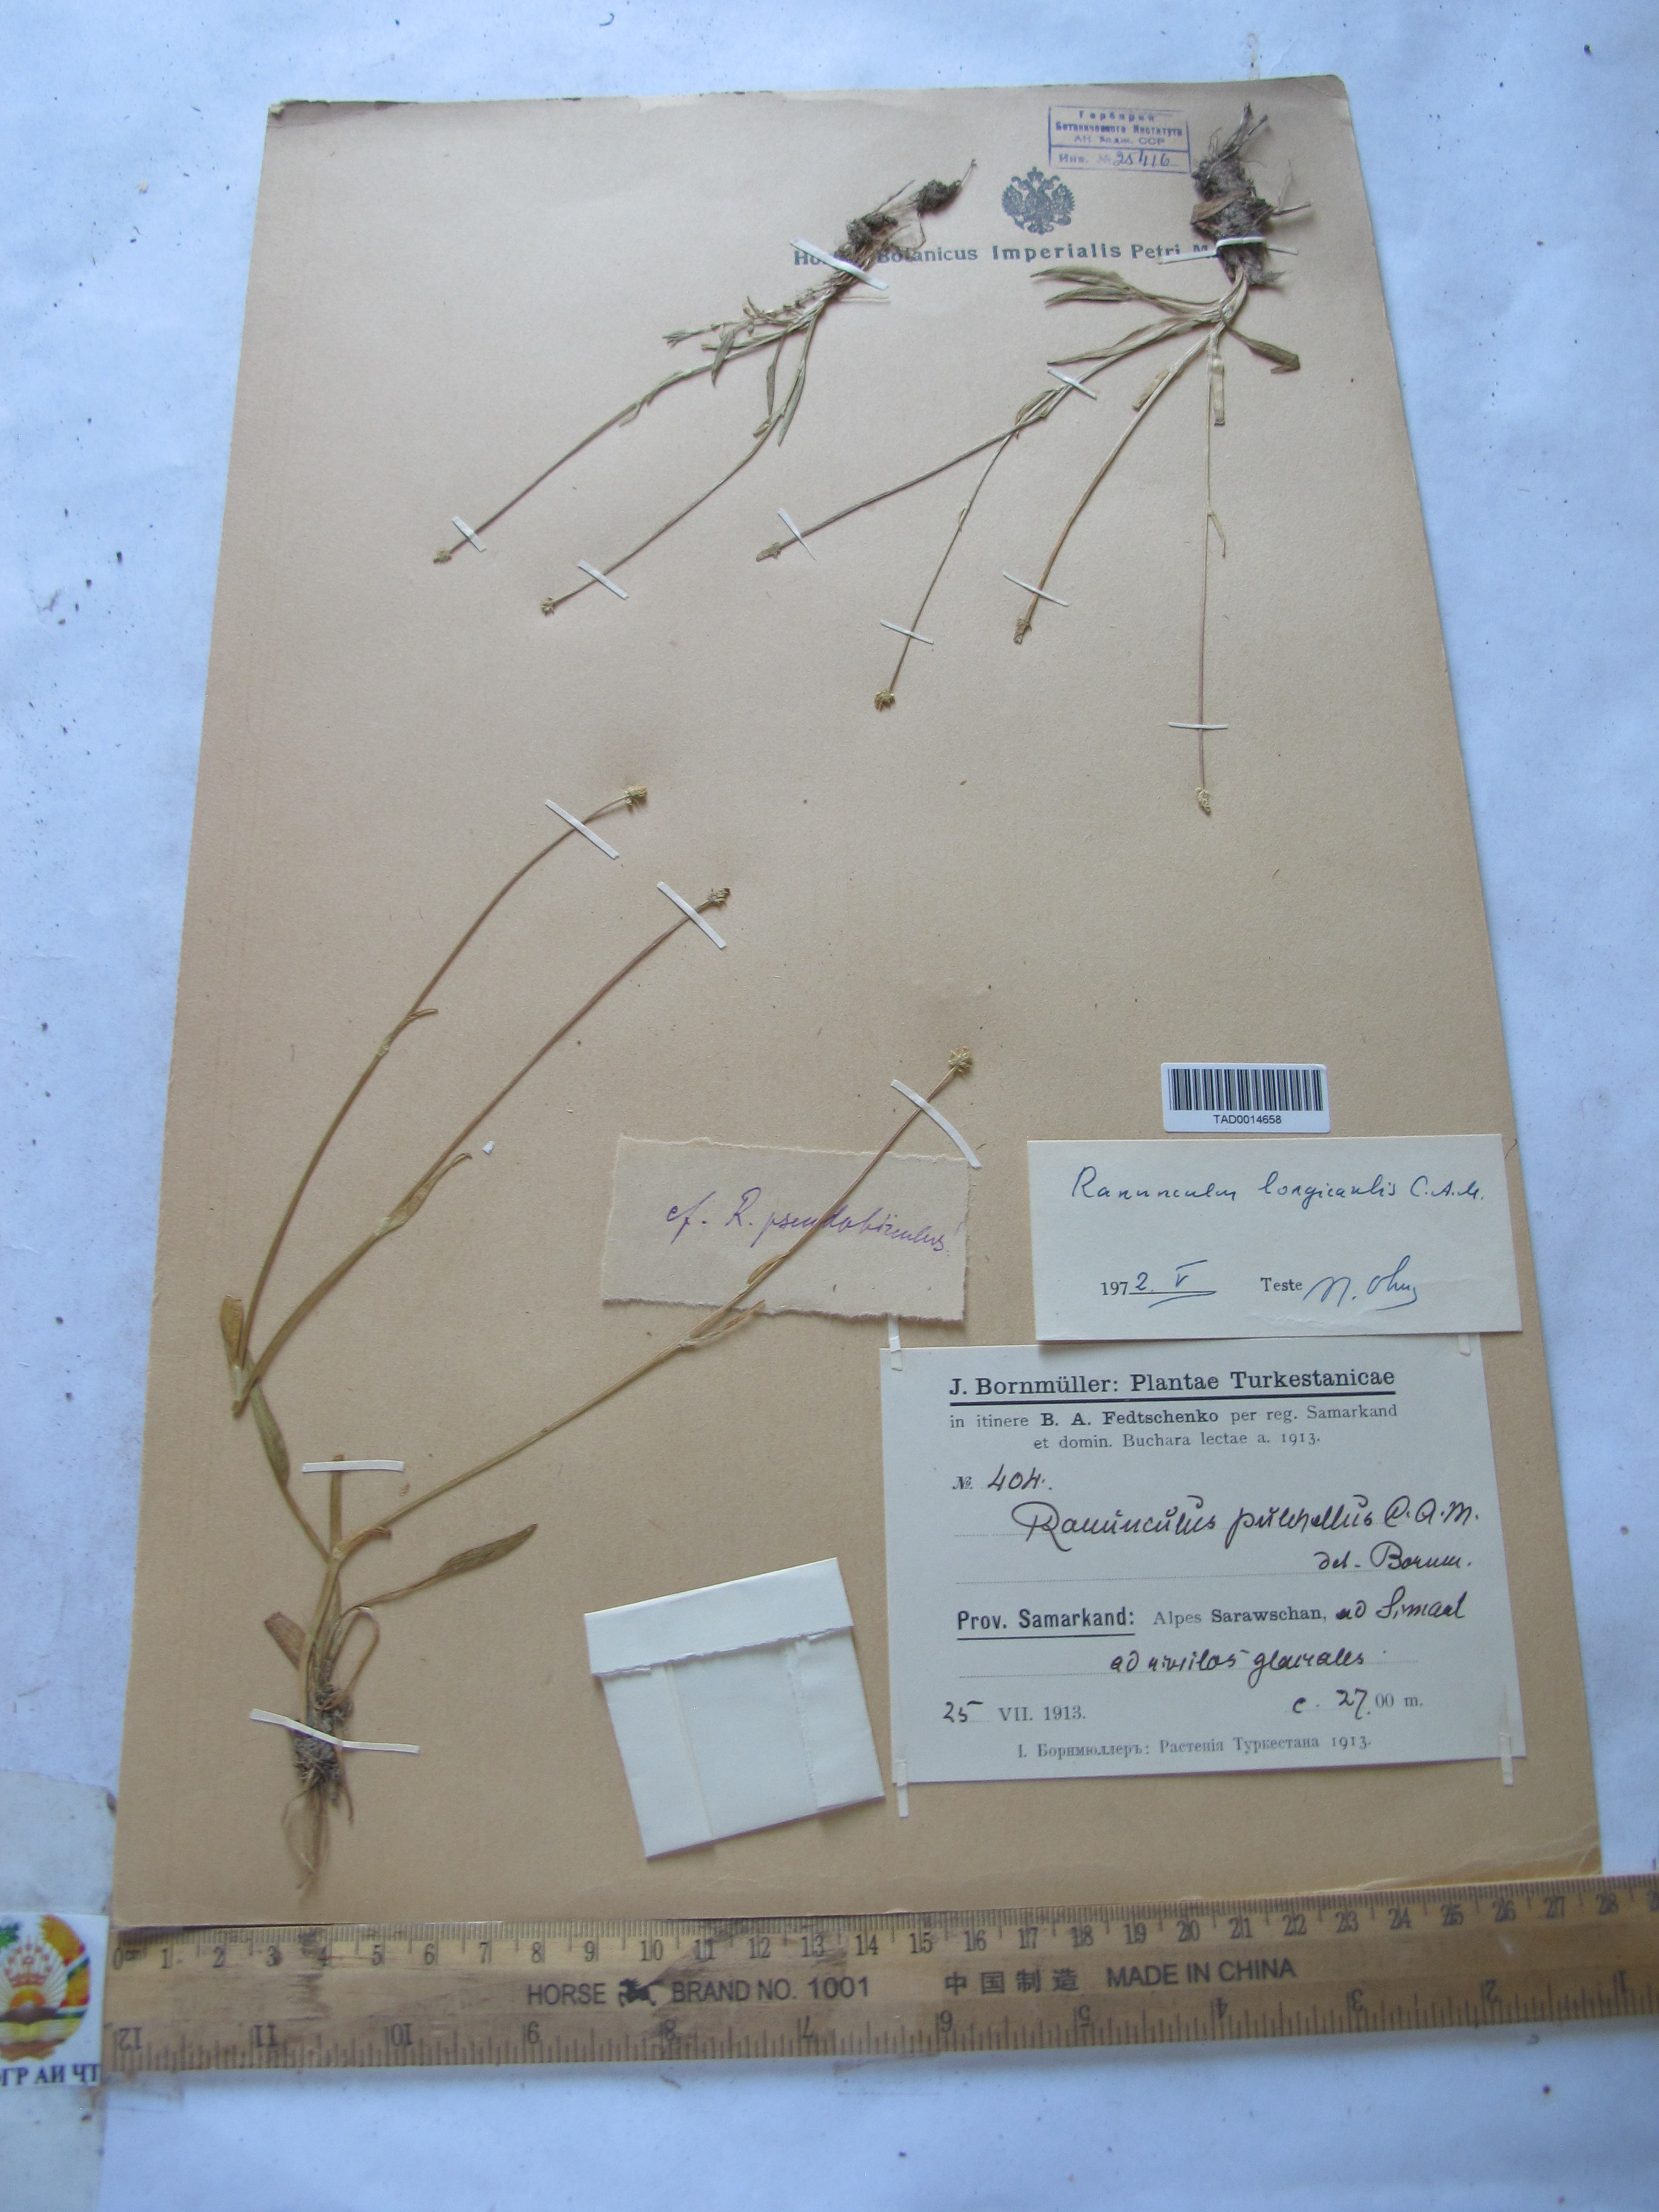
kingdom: Plantae
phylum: Tracheophyta
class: Magnoliopsida
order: Ranunculales
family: Ranunculaceae
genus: Ranunculus
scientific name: Ranunculus longicaulis
